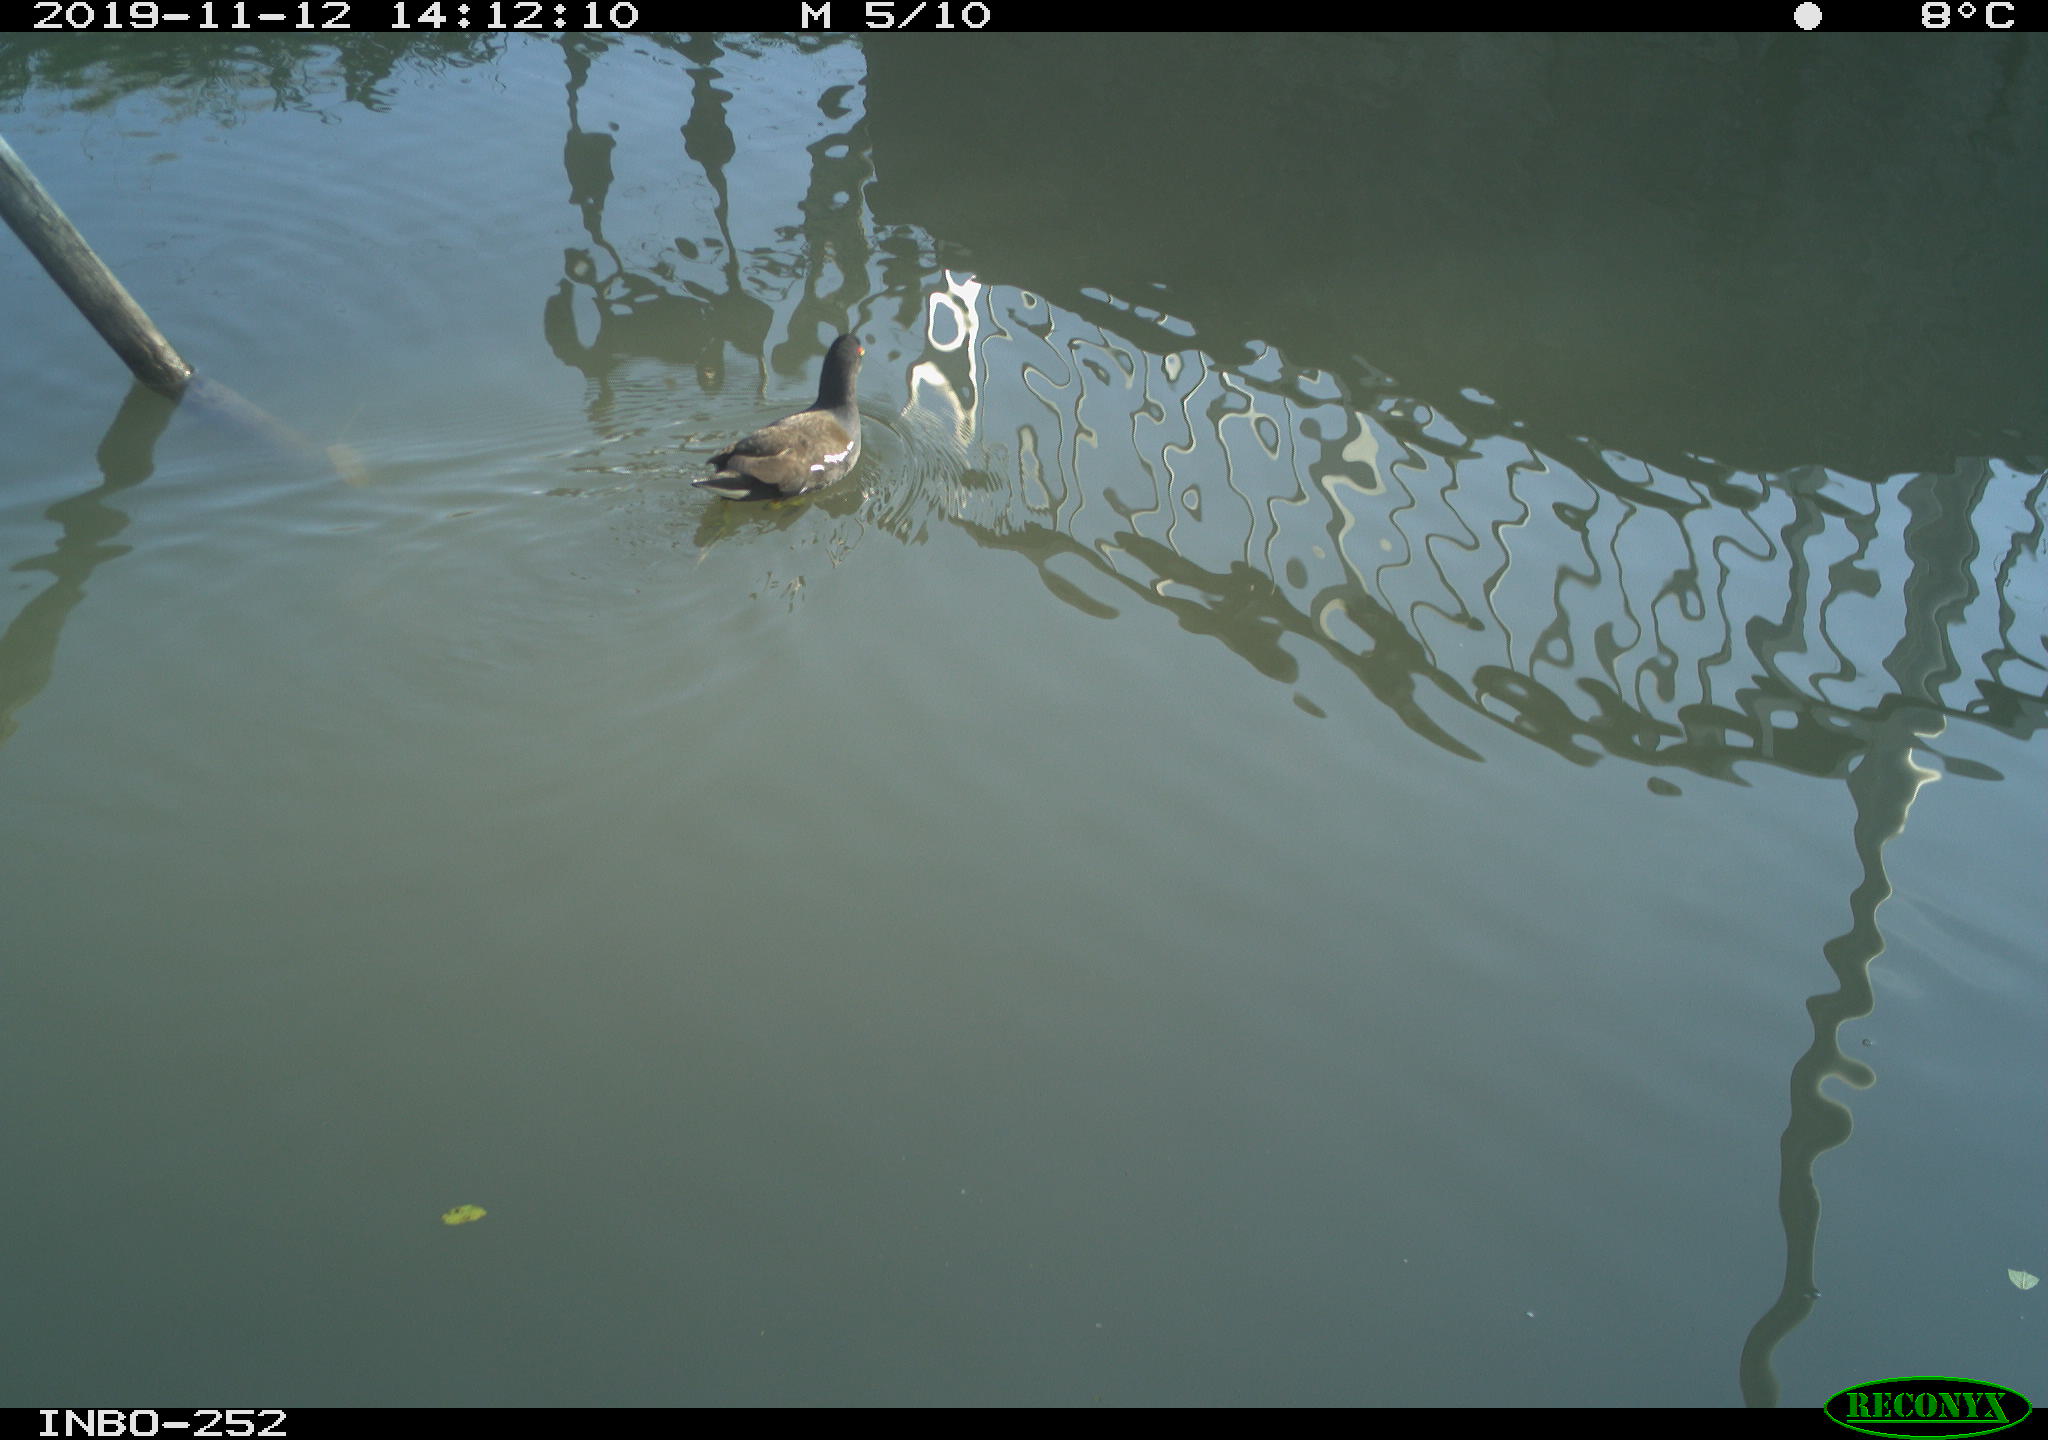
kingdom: Animalia
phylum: Chordata
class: Aves
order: Gruiformes
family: Rallidae
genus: Gallinula
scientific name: Gallinula chloropus
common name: Common moorhen
